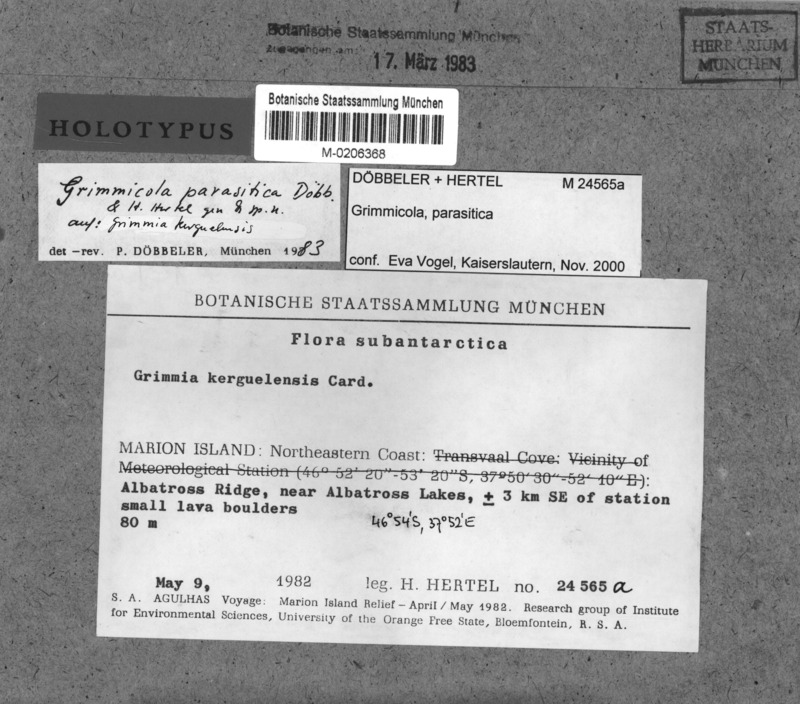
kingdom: Fungi
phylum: Ascomycota
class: Leotiomycetes
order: Helotiales
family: Helotiaceae
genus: Grimmicola
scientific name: Grimmicola parasiticus
